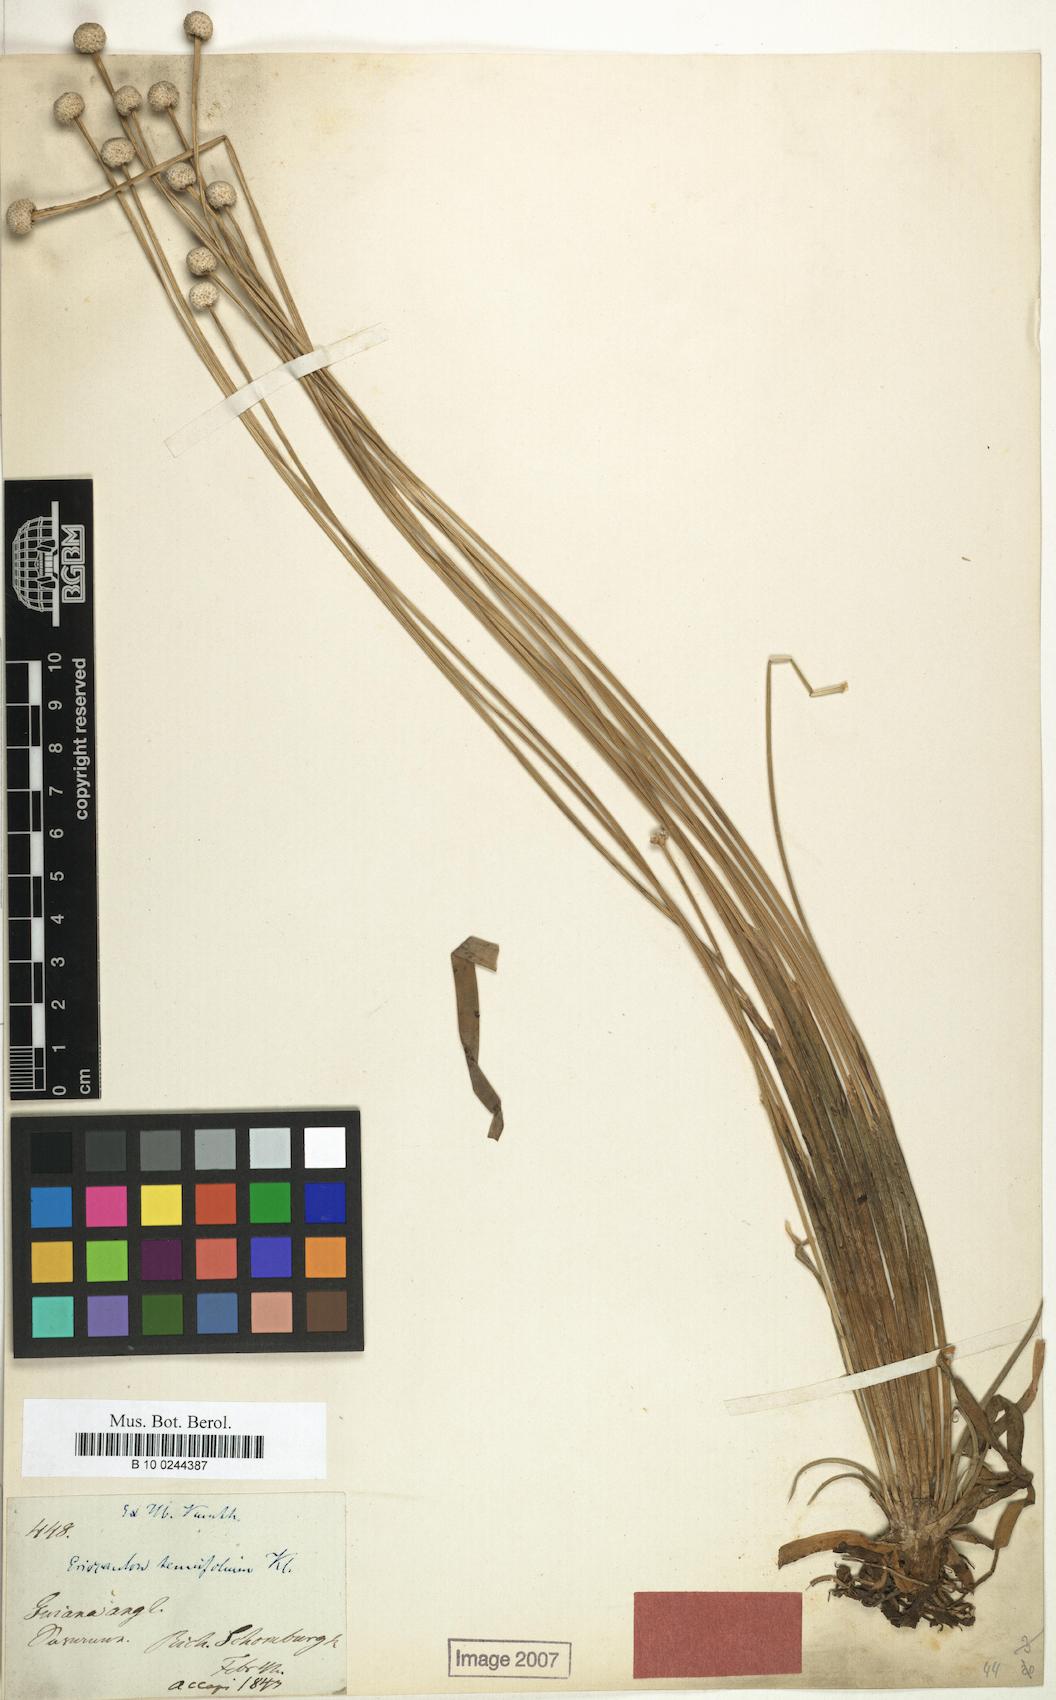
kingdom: Plantae
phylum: Tracheophyta
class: Liliopsida
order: Poales
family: Eriocaulaceae
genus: Eriocaulon
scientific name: Eriocaulon tenuifolium
